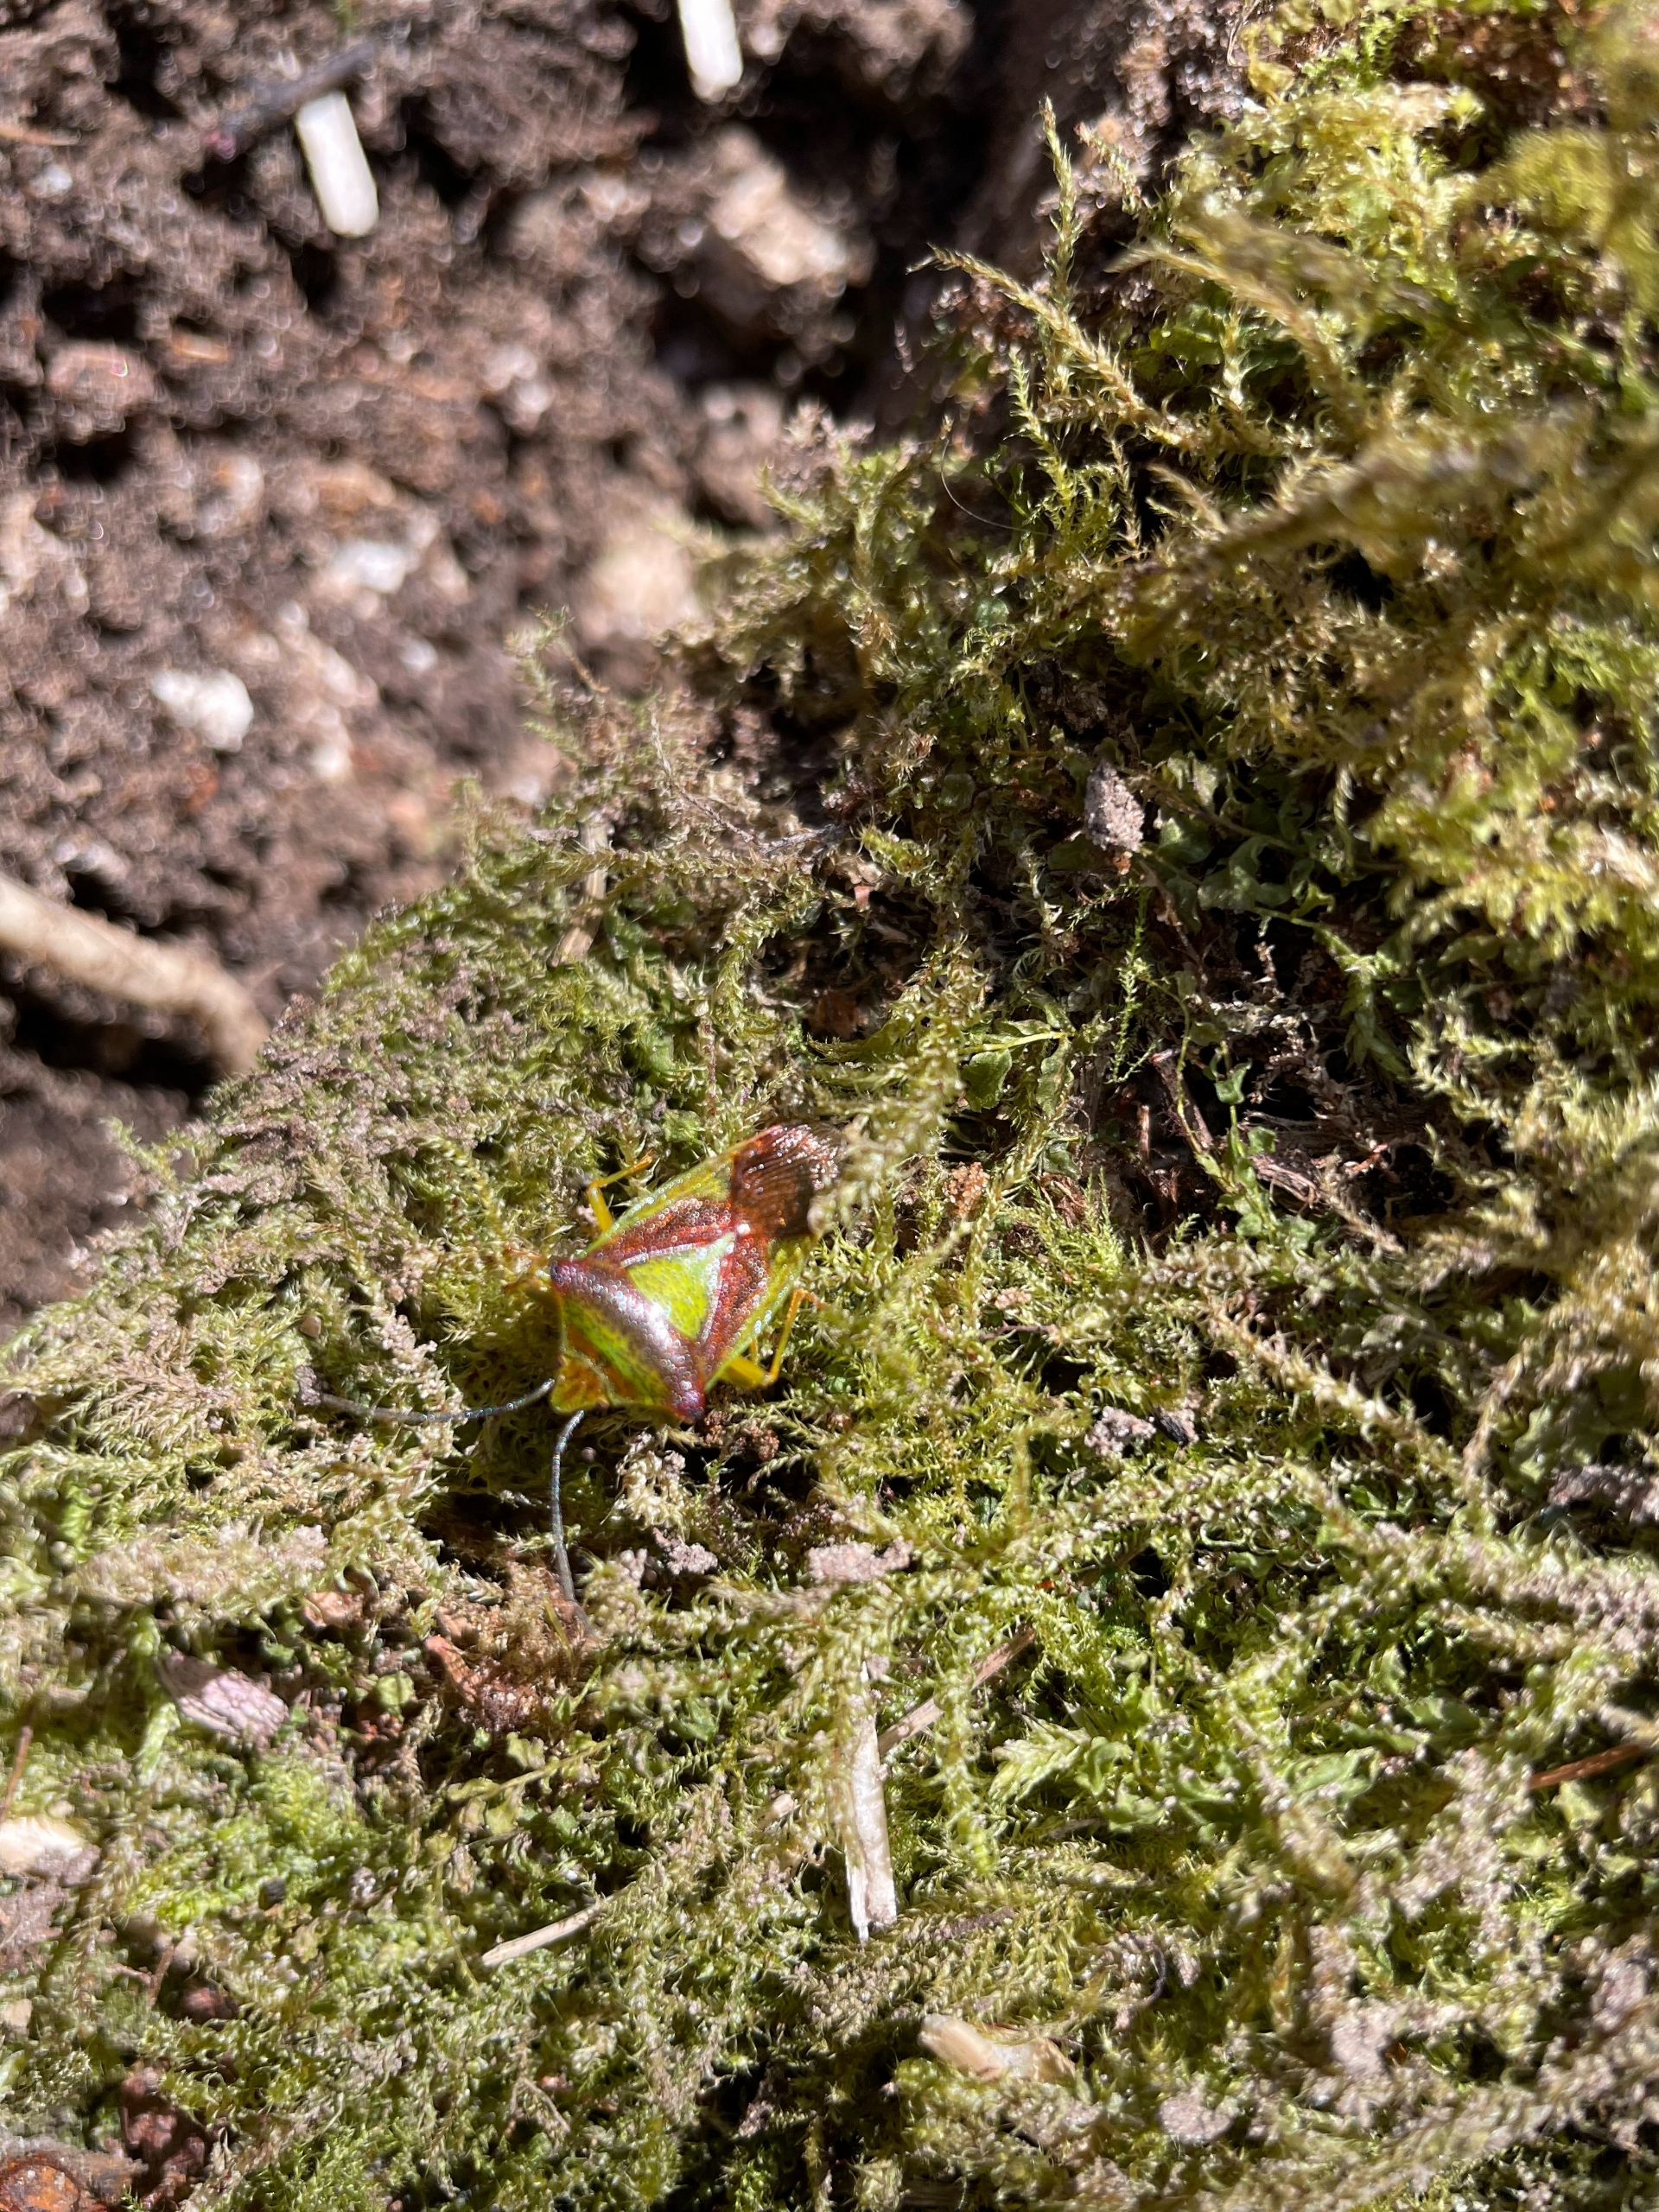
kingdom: Animalia
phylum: Arthropoda
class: Insecta
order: Hemiptera
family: Acanthosomatidae
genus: Acanthosoma
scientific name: Acanthosoma haemorrhoidale
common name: Stor løvtæge
